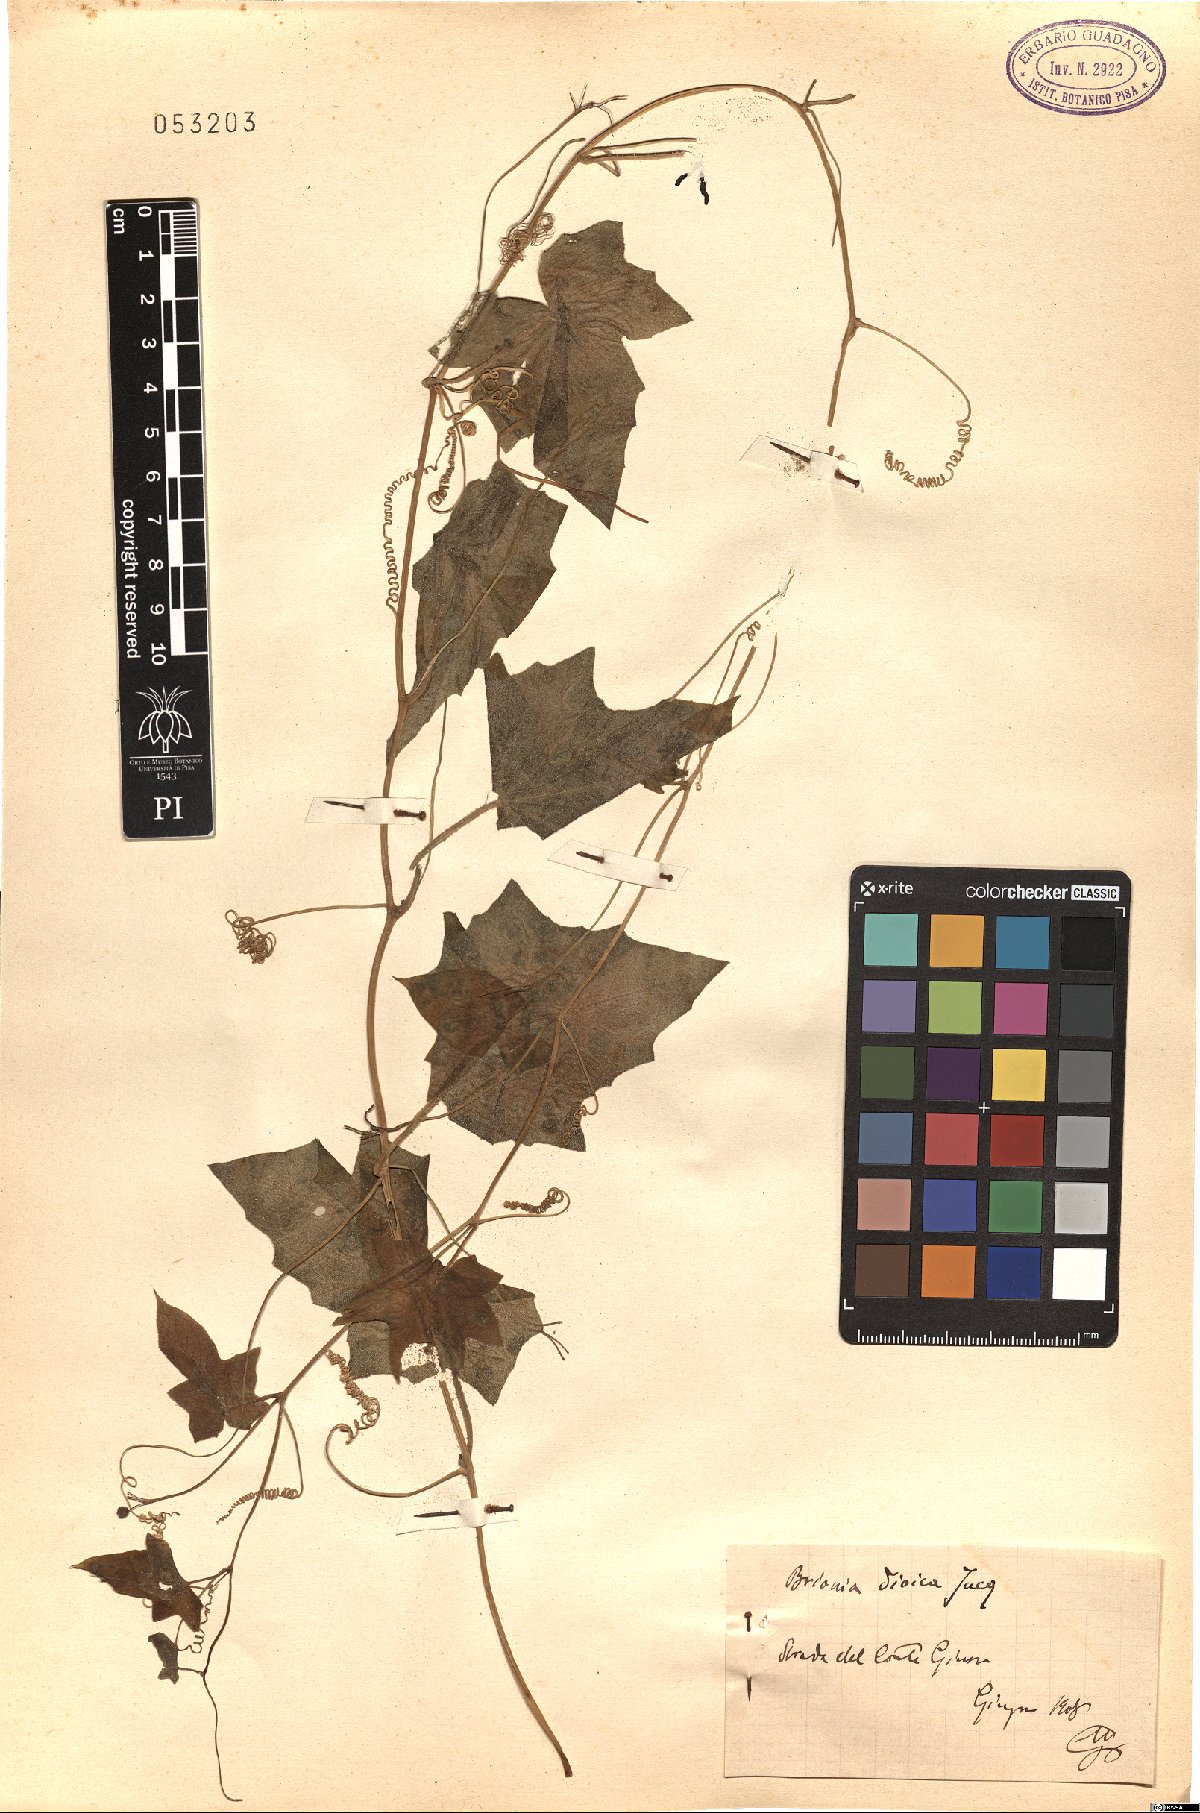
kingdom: Plantae
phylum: Tracheophyta
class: Magnoliopsida
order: Cucurbitales
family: Cucurbitaceae
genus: Bryonia
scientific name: Bryonia dioica
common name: White bryony
